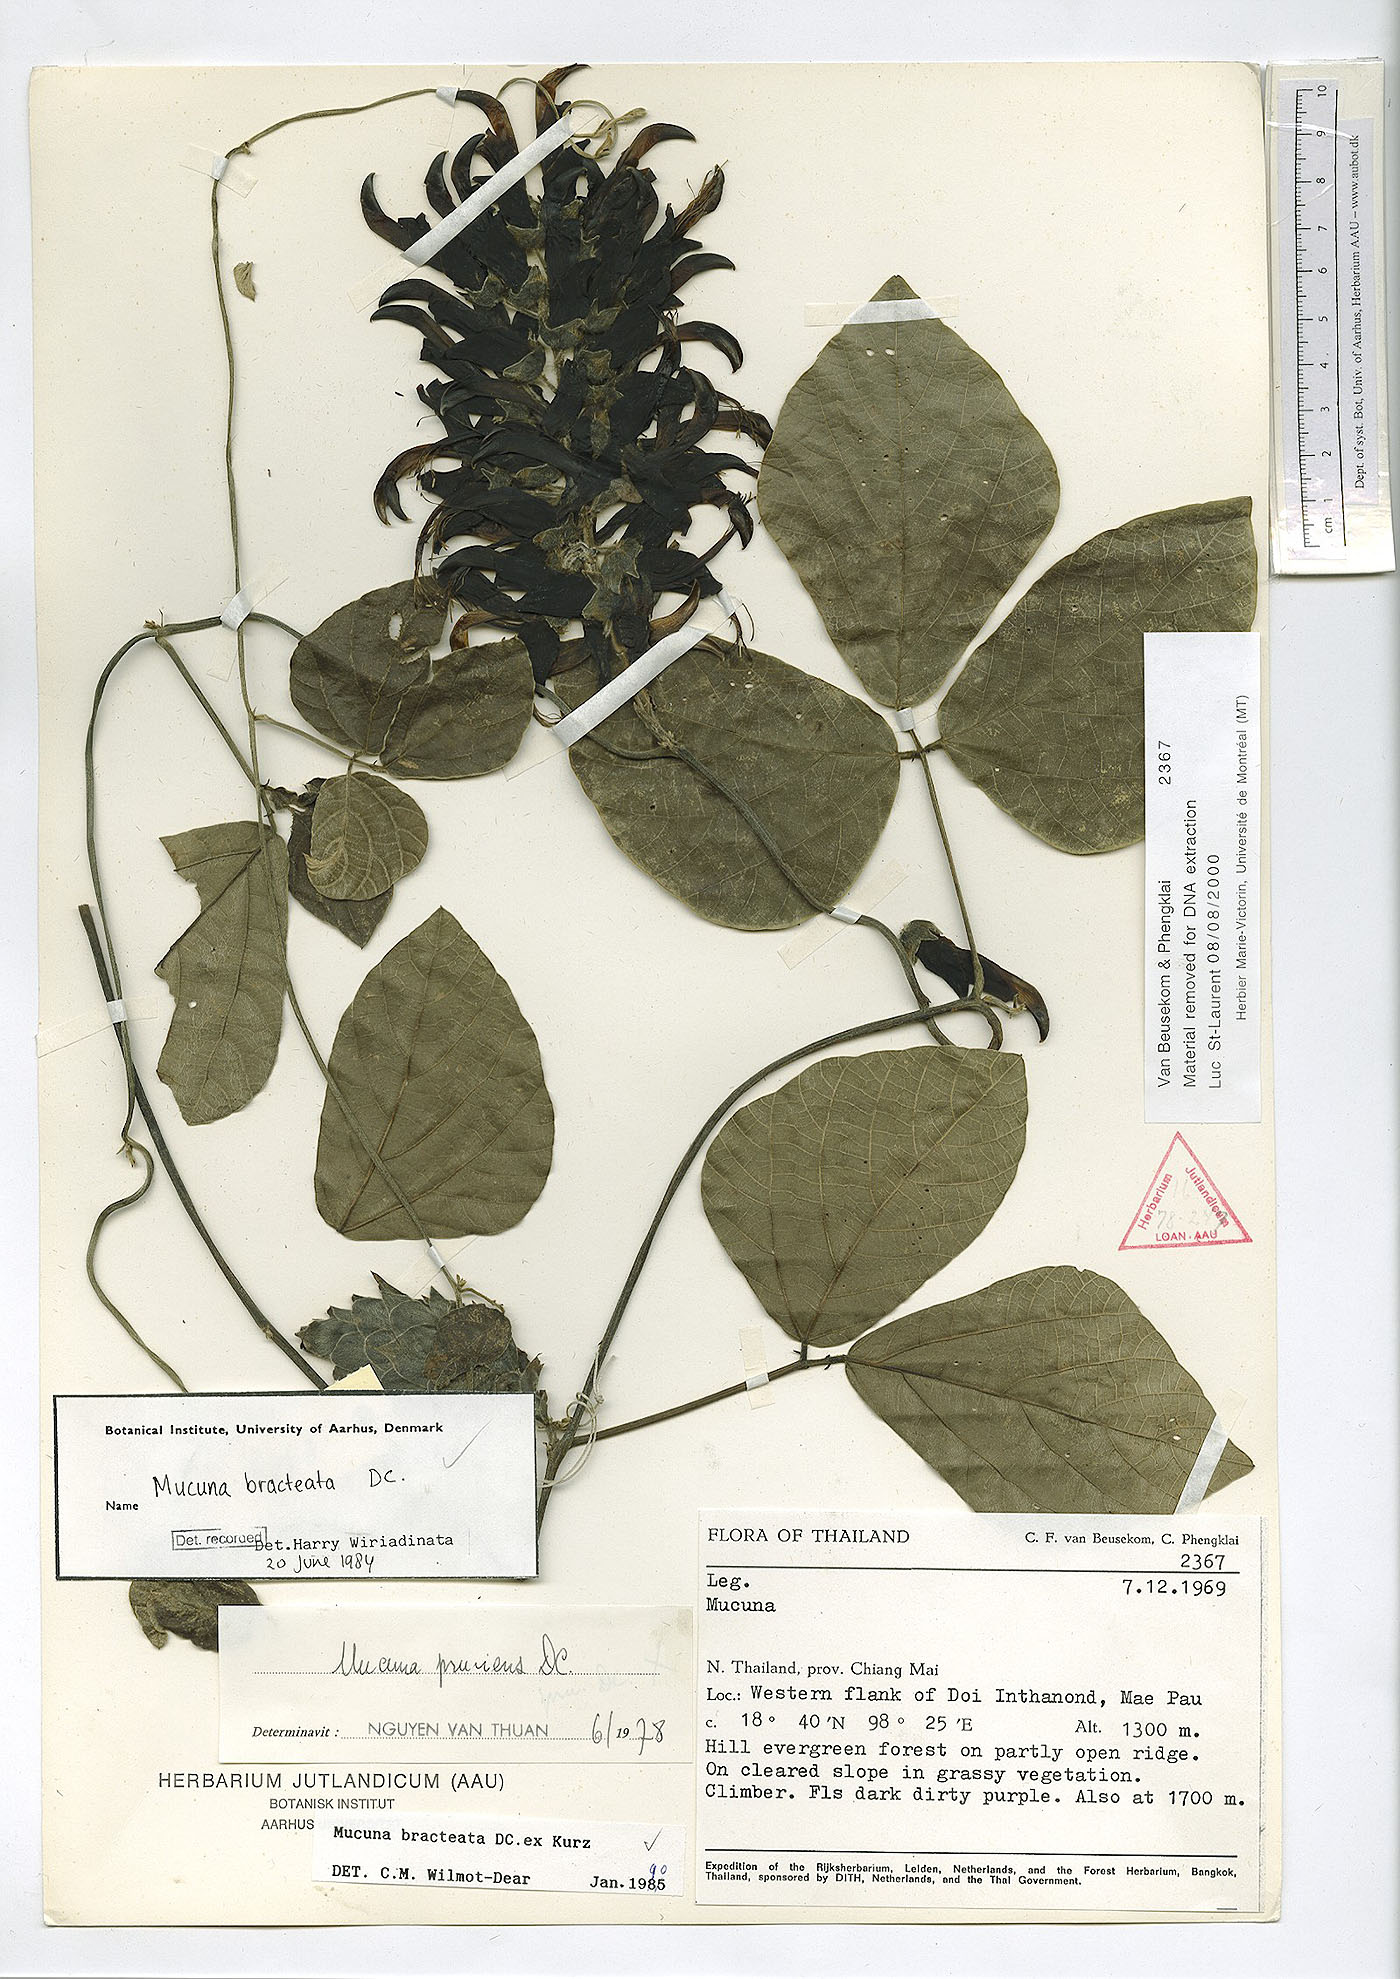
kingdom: Plantae
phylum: Tracheophyta
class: Magnoliopsida
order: Fabales
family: Fabaceae
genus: Mucuna
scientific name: Mucuna bracteata
